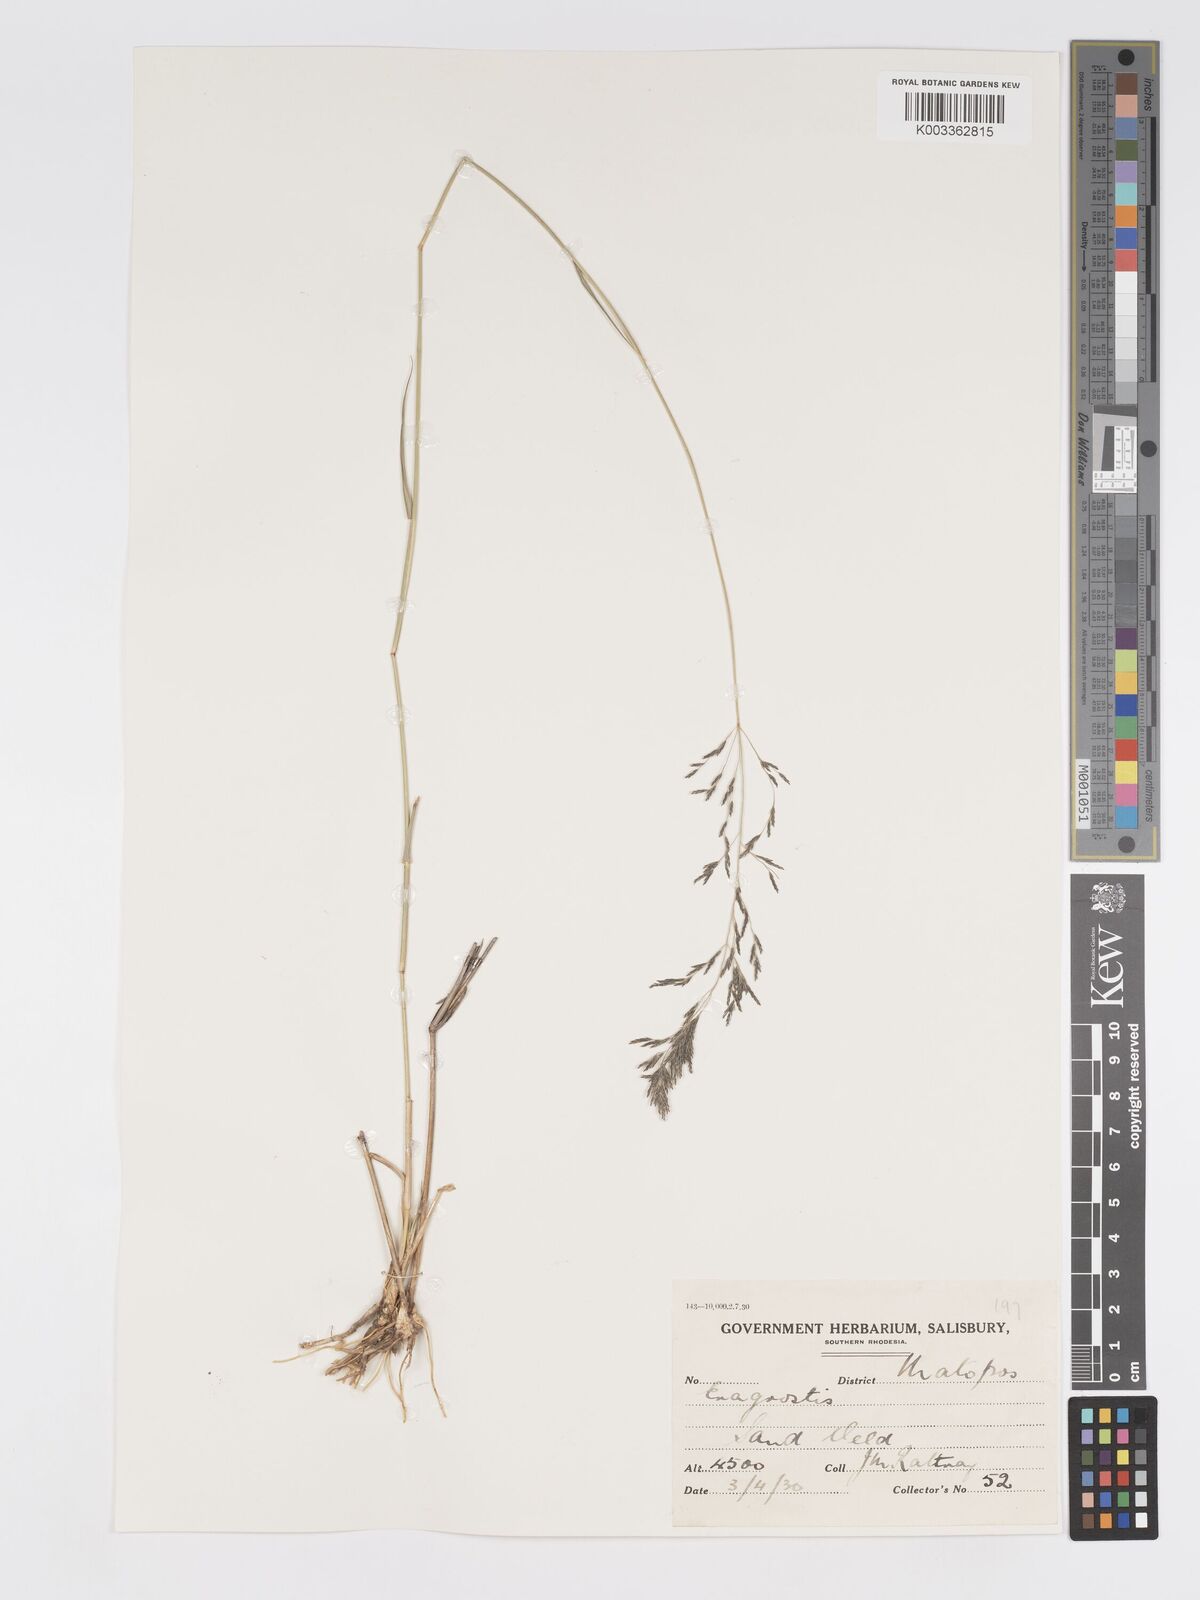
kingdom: Plantae
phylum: Tracheophyta
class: Liliopsida
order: Poales
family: Poaceae
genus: Eragrostis
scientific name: Eragrostis cylindriflora
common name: Cylinderflower lovegrass
